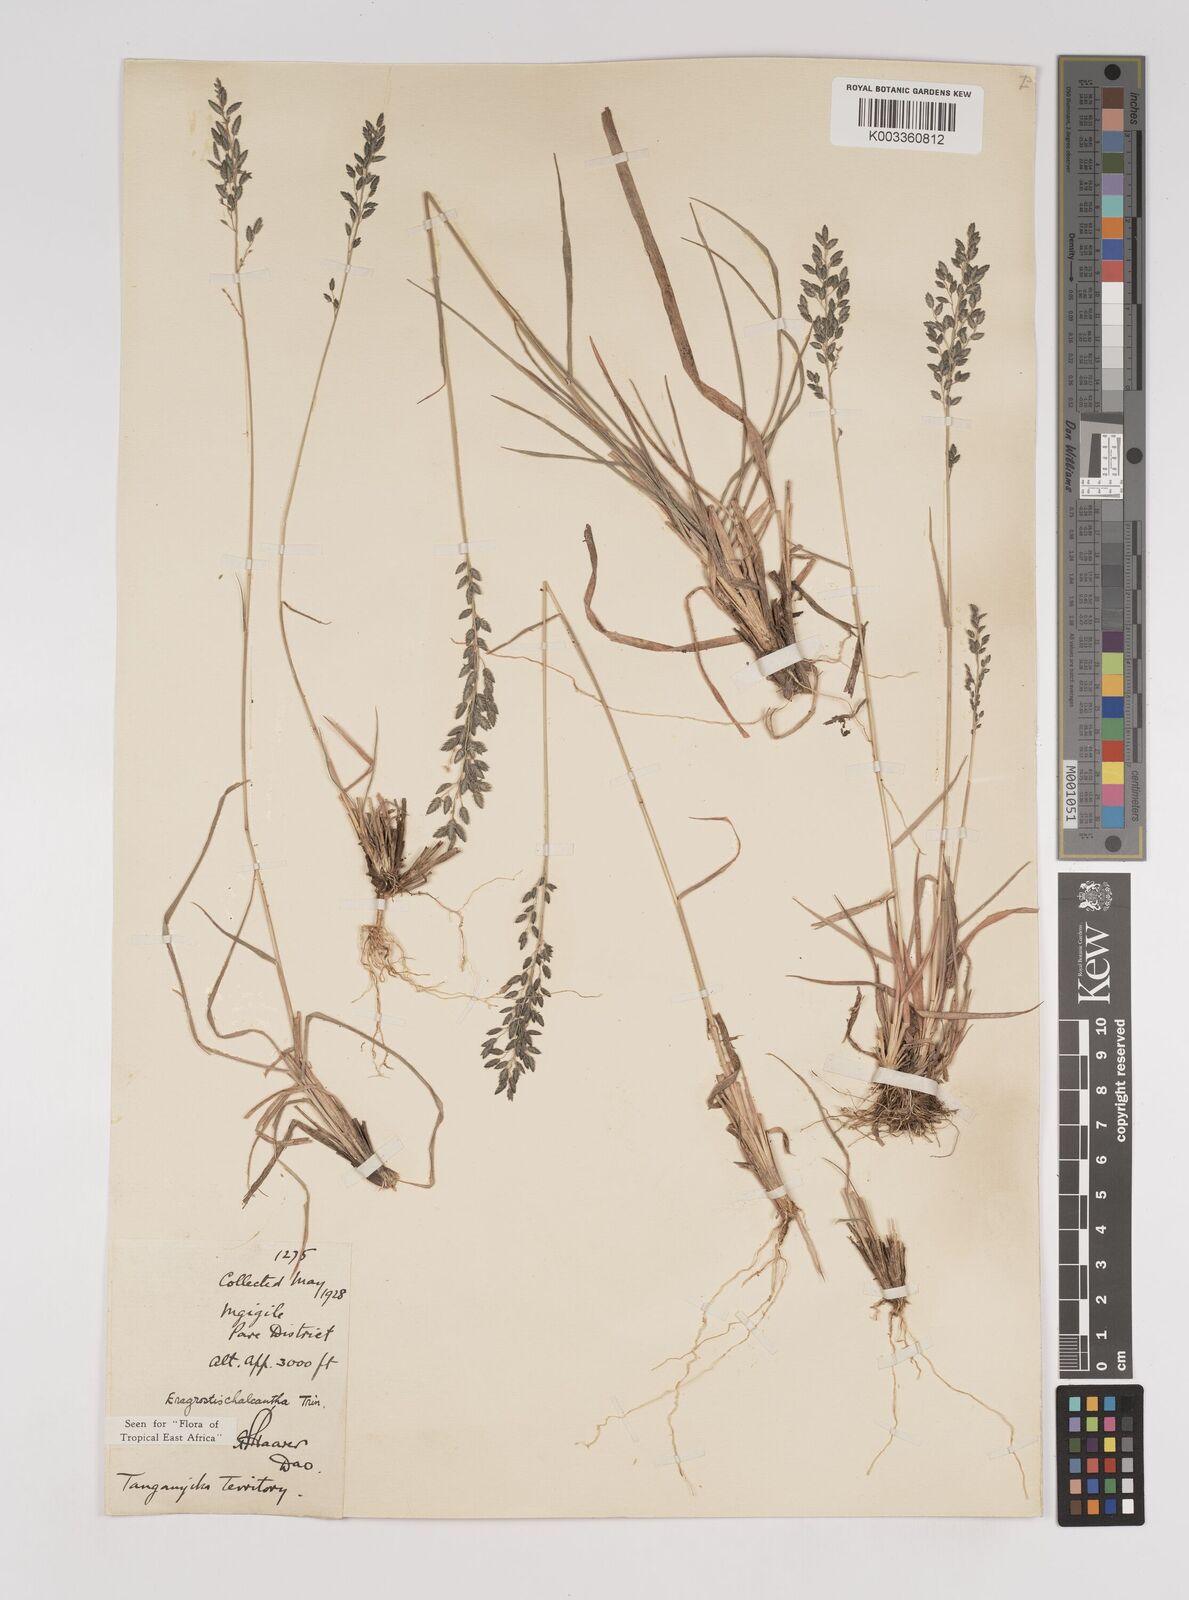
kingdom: Plantae
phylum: Tracheophyta
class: Liliopsida
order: Poales
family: Poaceae
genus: Eragrostis
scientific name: Eragrostis racemosa
